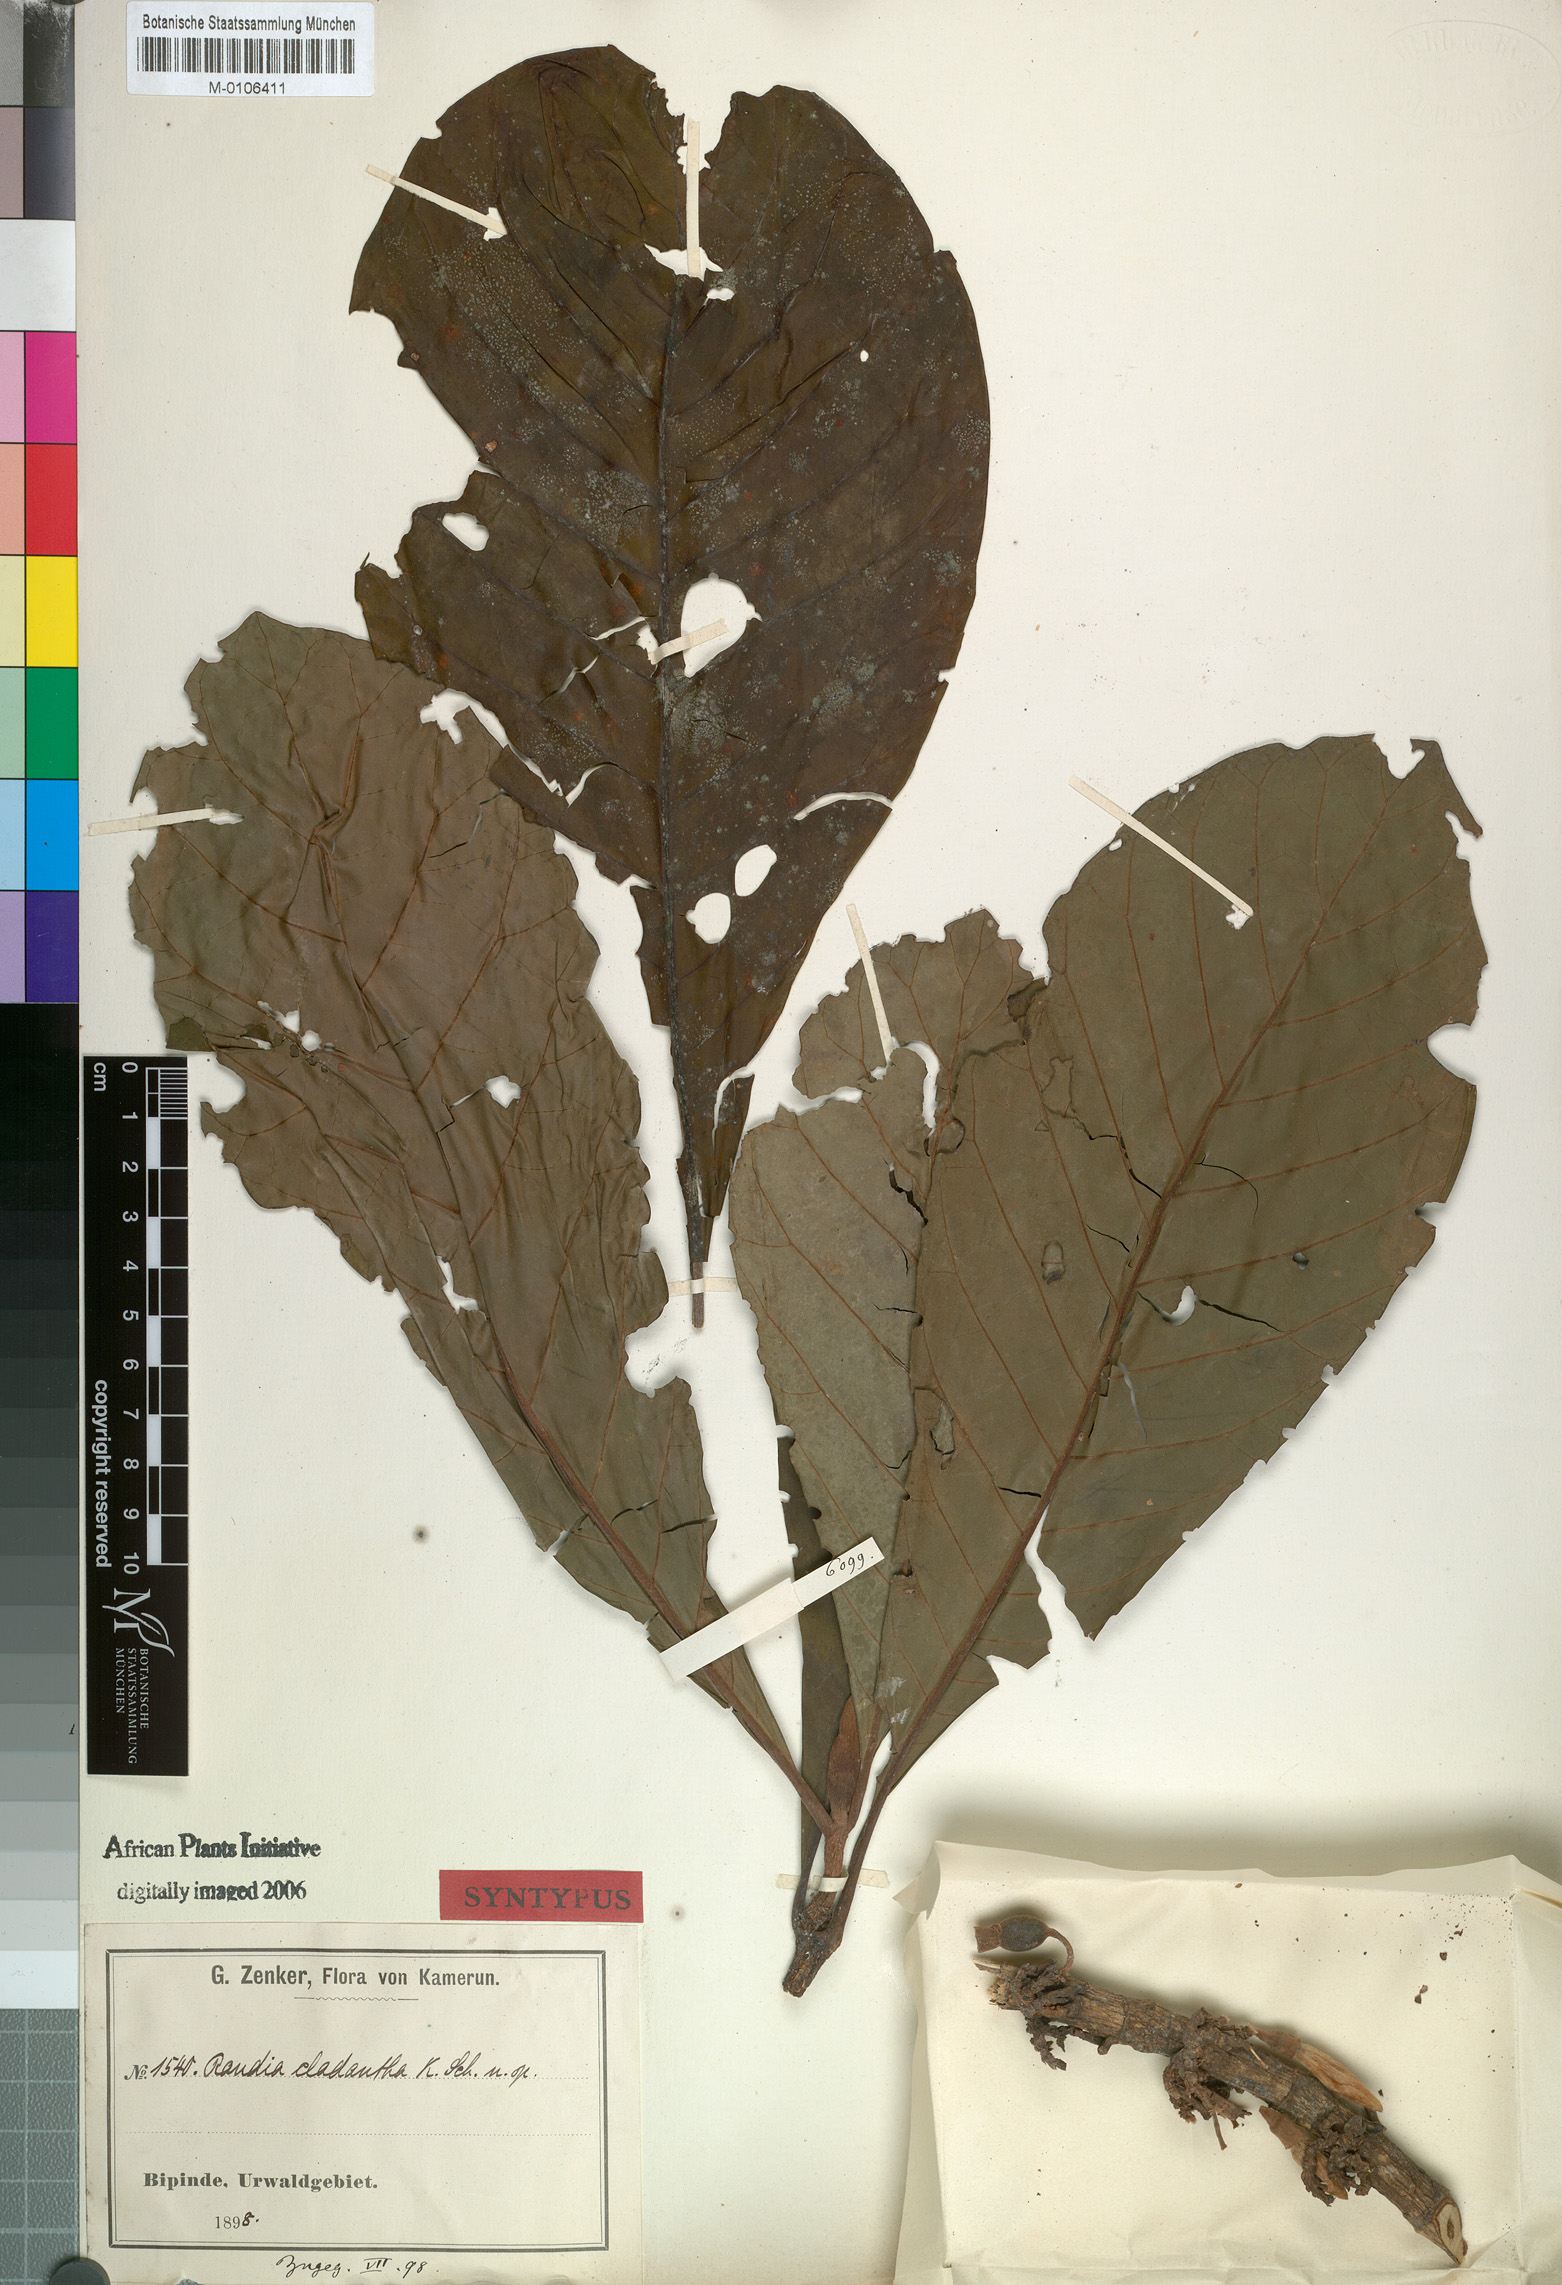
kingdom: Plantae
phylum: Tracheophyta
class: Magnoliopsida
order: Gentianales
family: Rubiaceae
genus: Aoranthe
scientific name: Aoranthe cladantha
